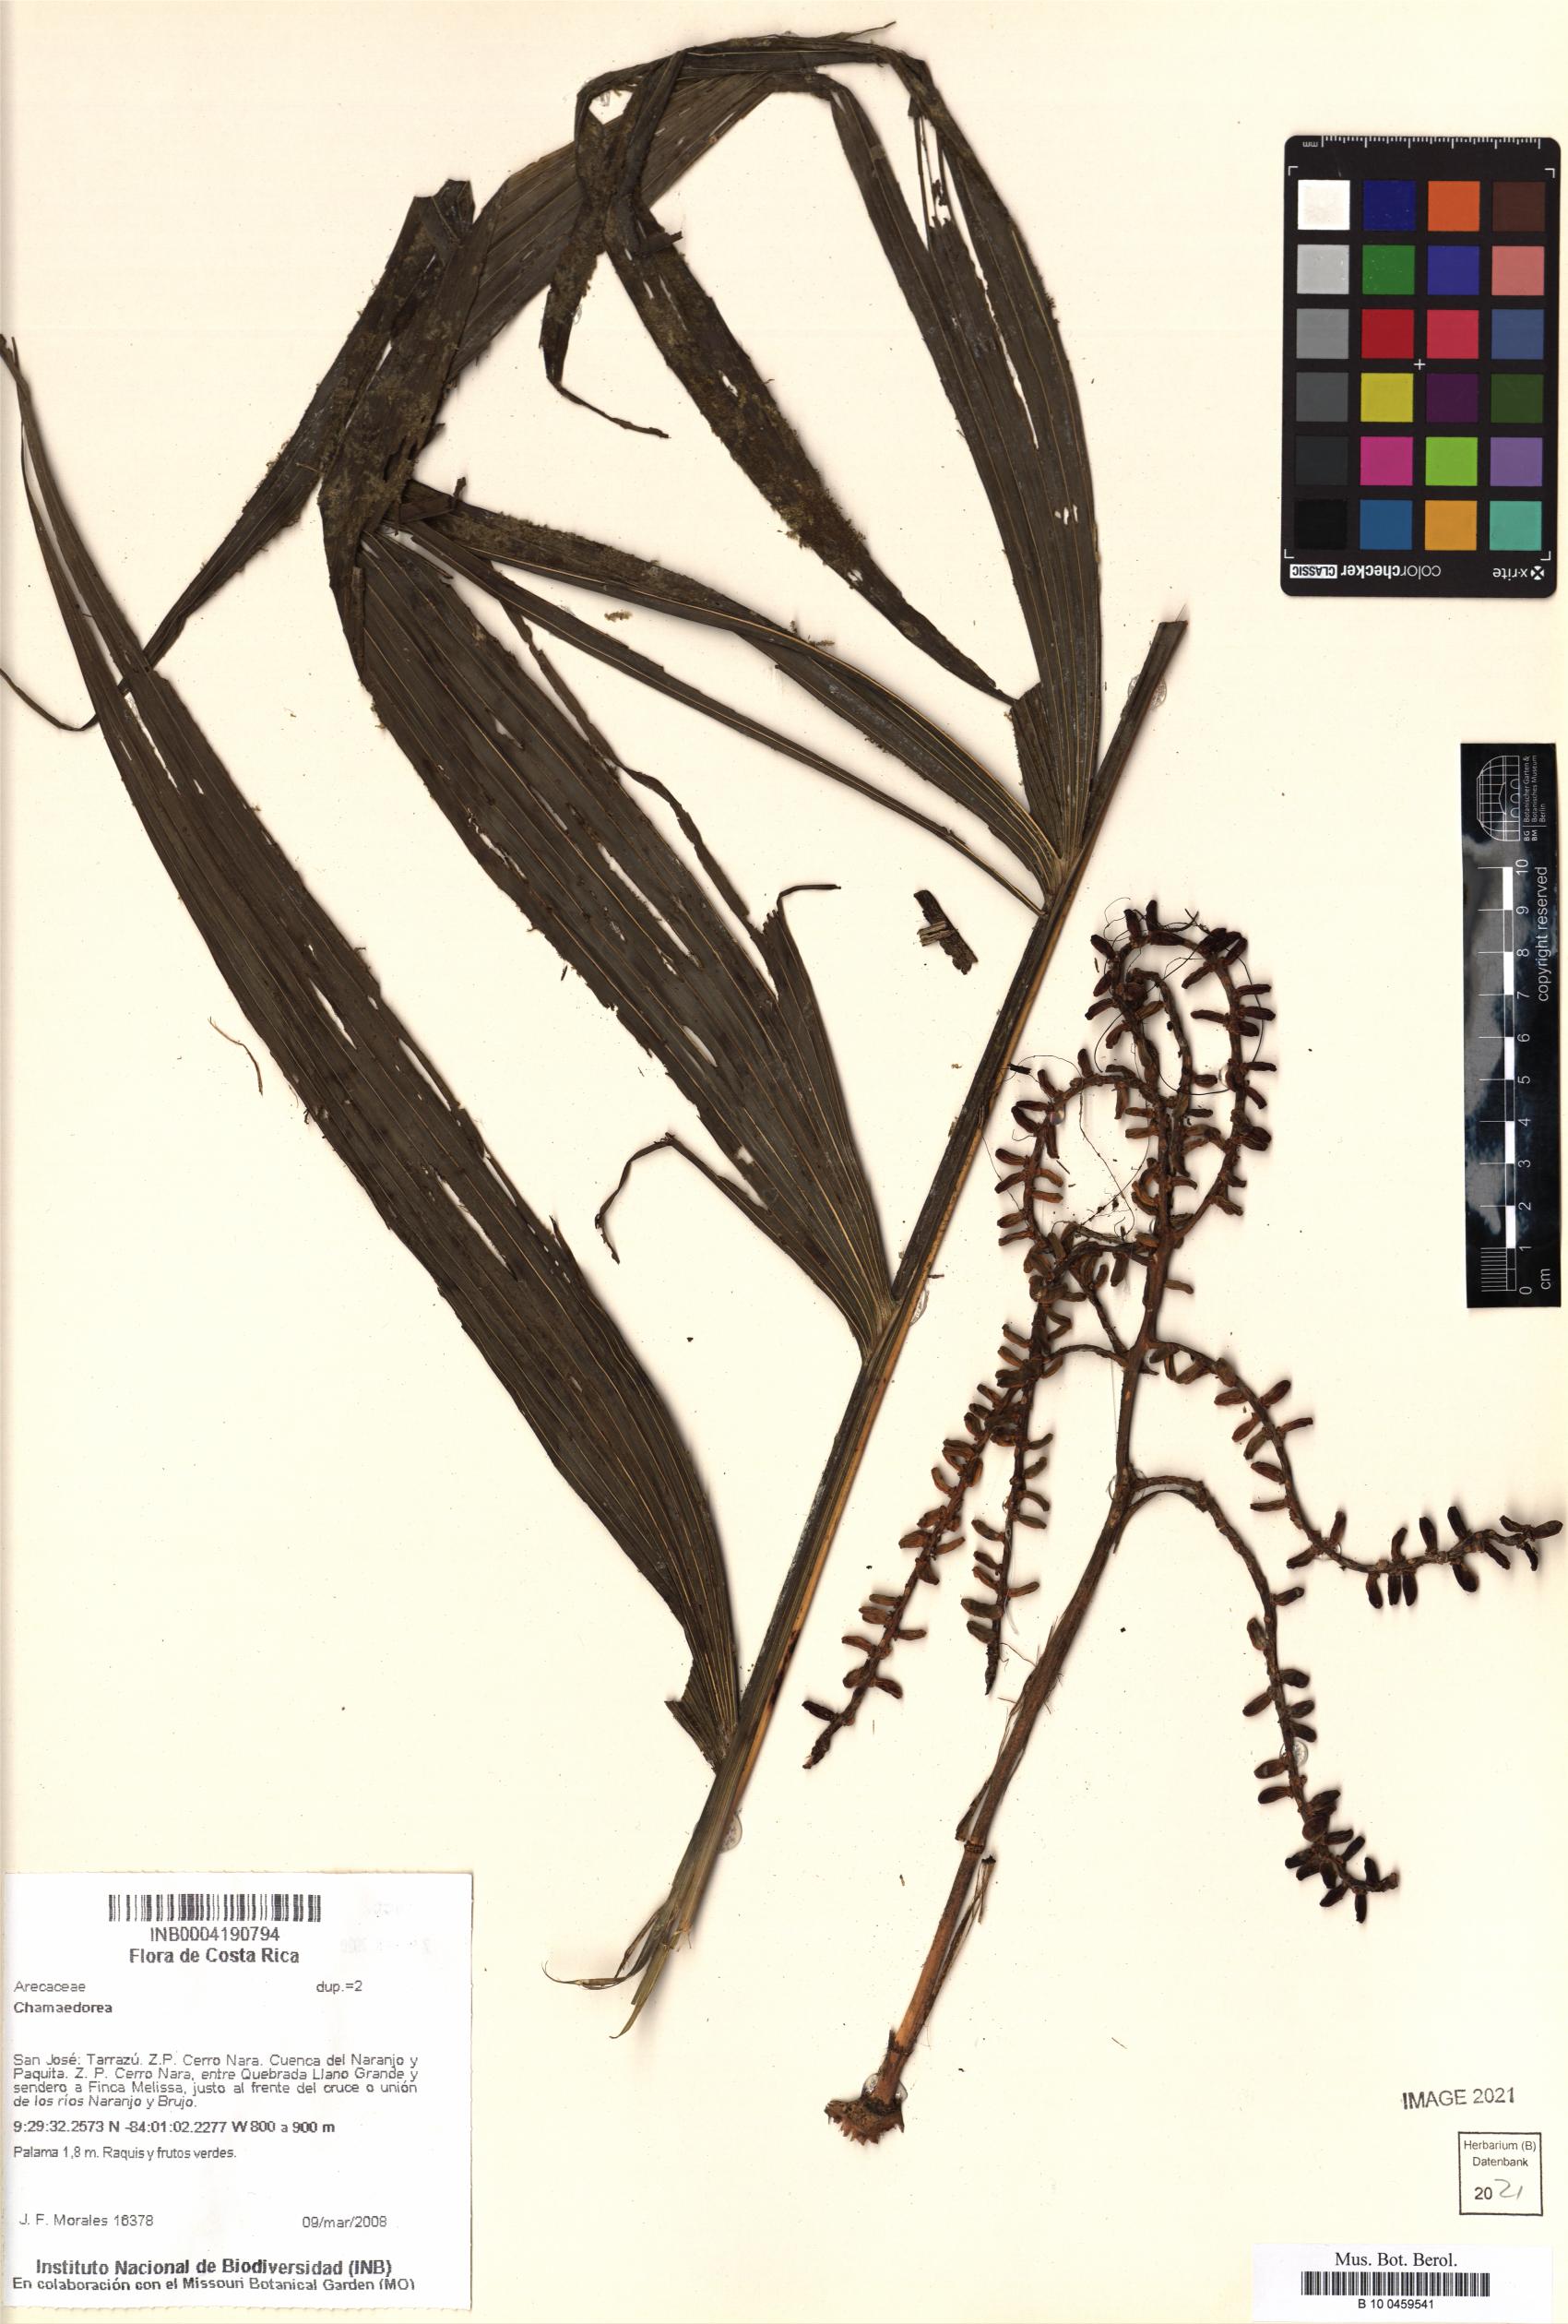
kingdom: Plantae
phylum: Tracheophyta
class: Liliopsida
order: Arecales
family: Arecaceae
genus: Chamaedorea
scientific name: Chamaedorea
